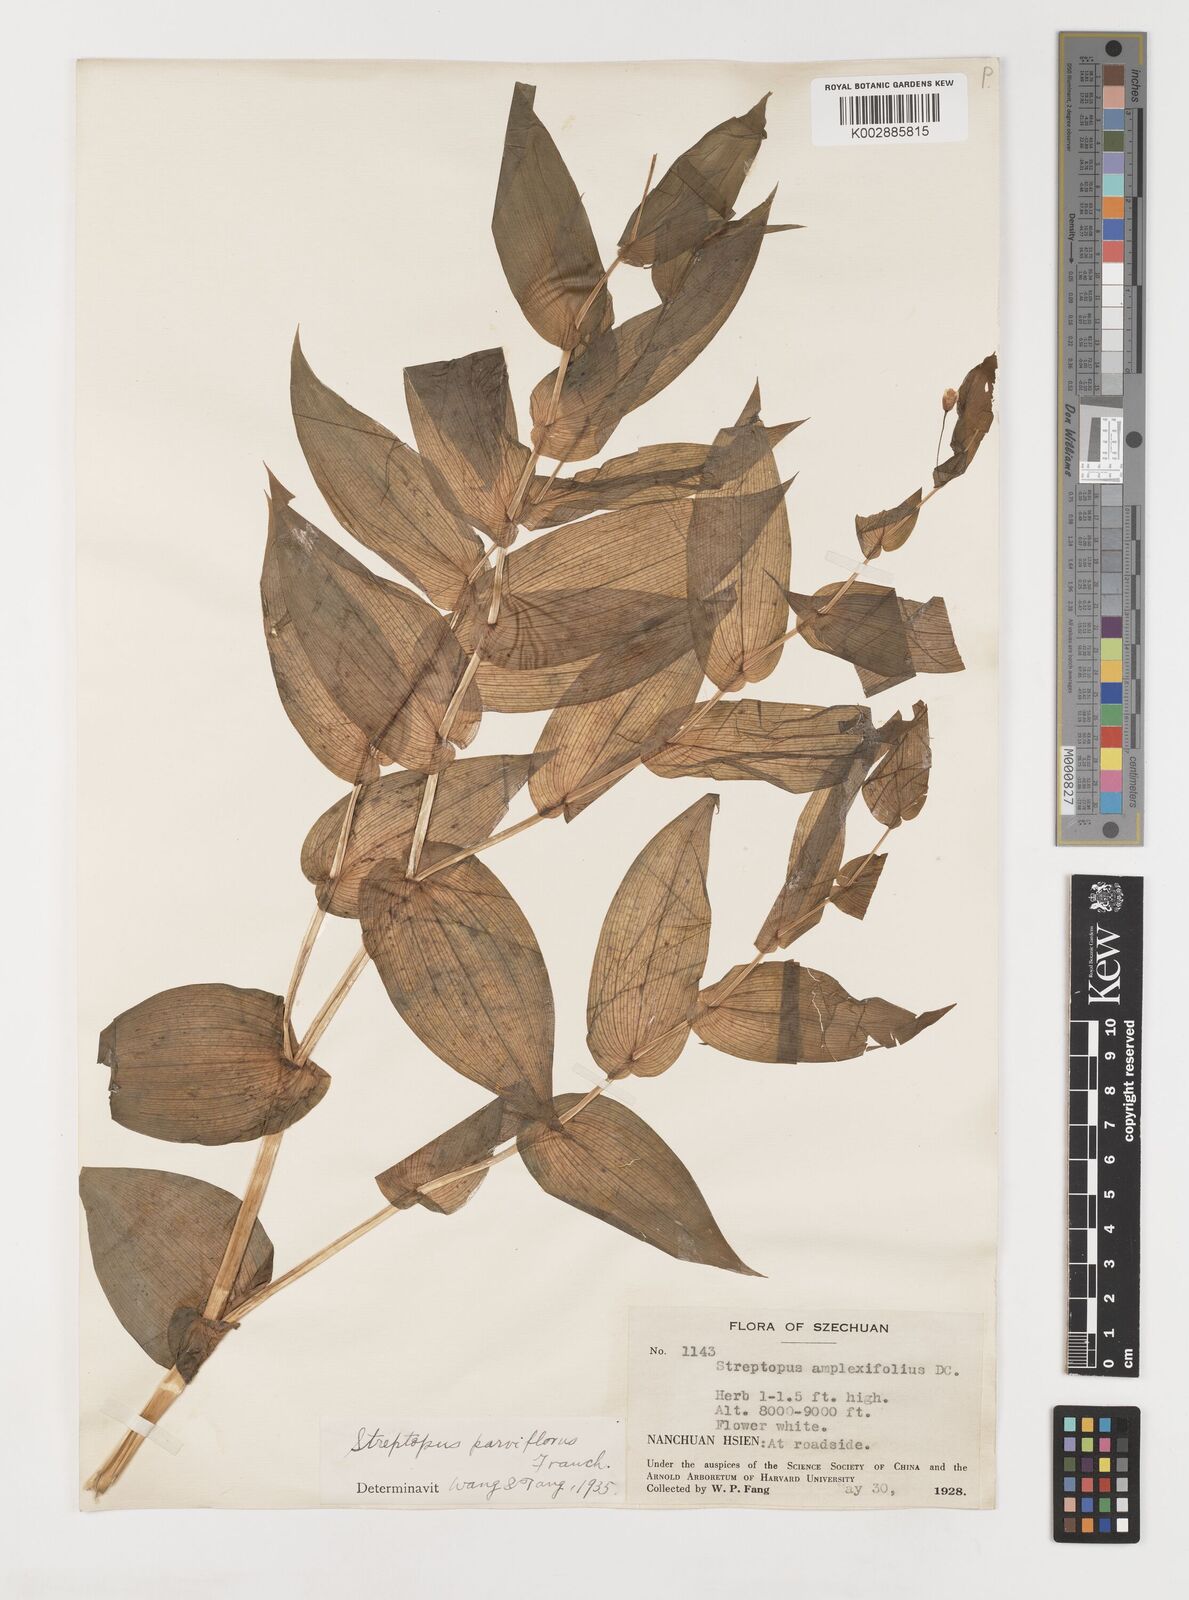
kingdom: Plantae
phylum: Tracheophyta
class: Liliopsida
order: Liliales
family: Liliaceae
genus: Streptopus
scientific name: Streptopus parviflorus
